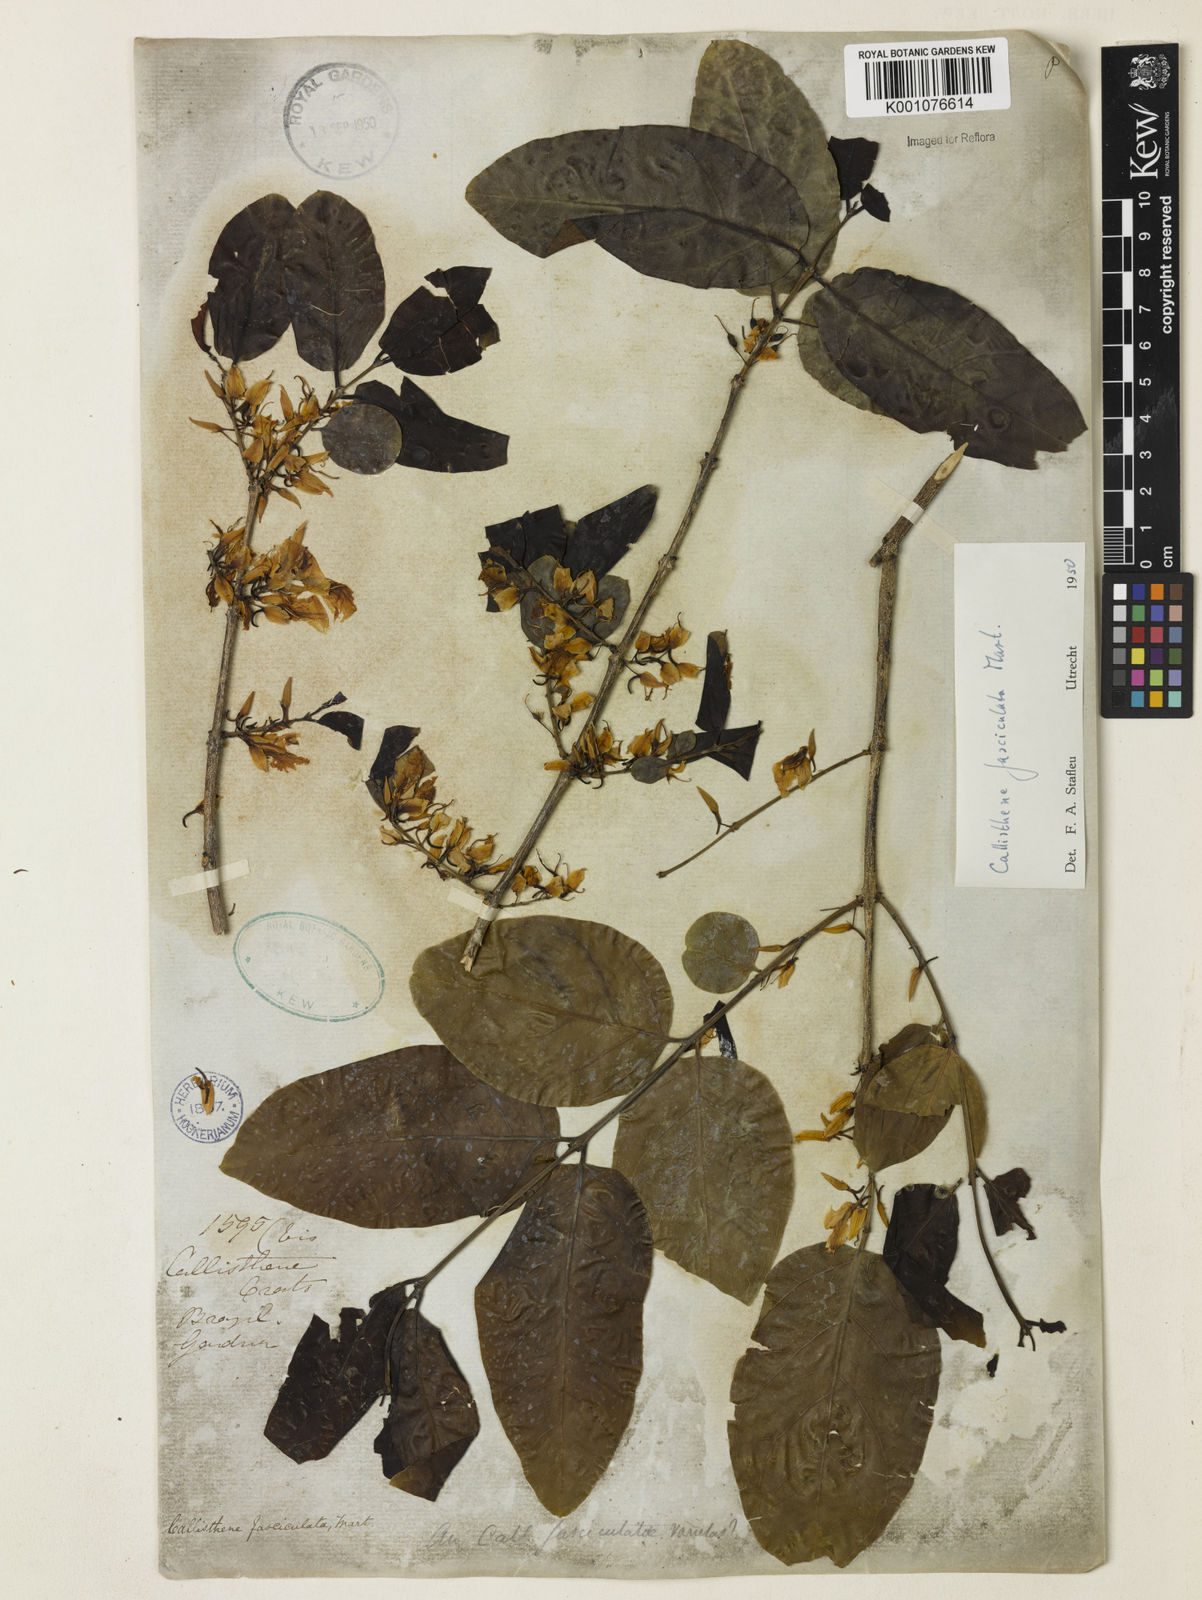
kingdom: Plantae
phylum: Tracheophyta
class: Magnoliopsida
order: Myrtales
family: Vochysiaceae
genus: Callisthene
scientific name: Callisthene fasciculata
